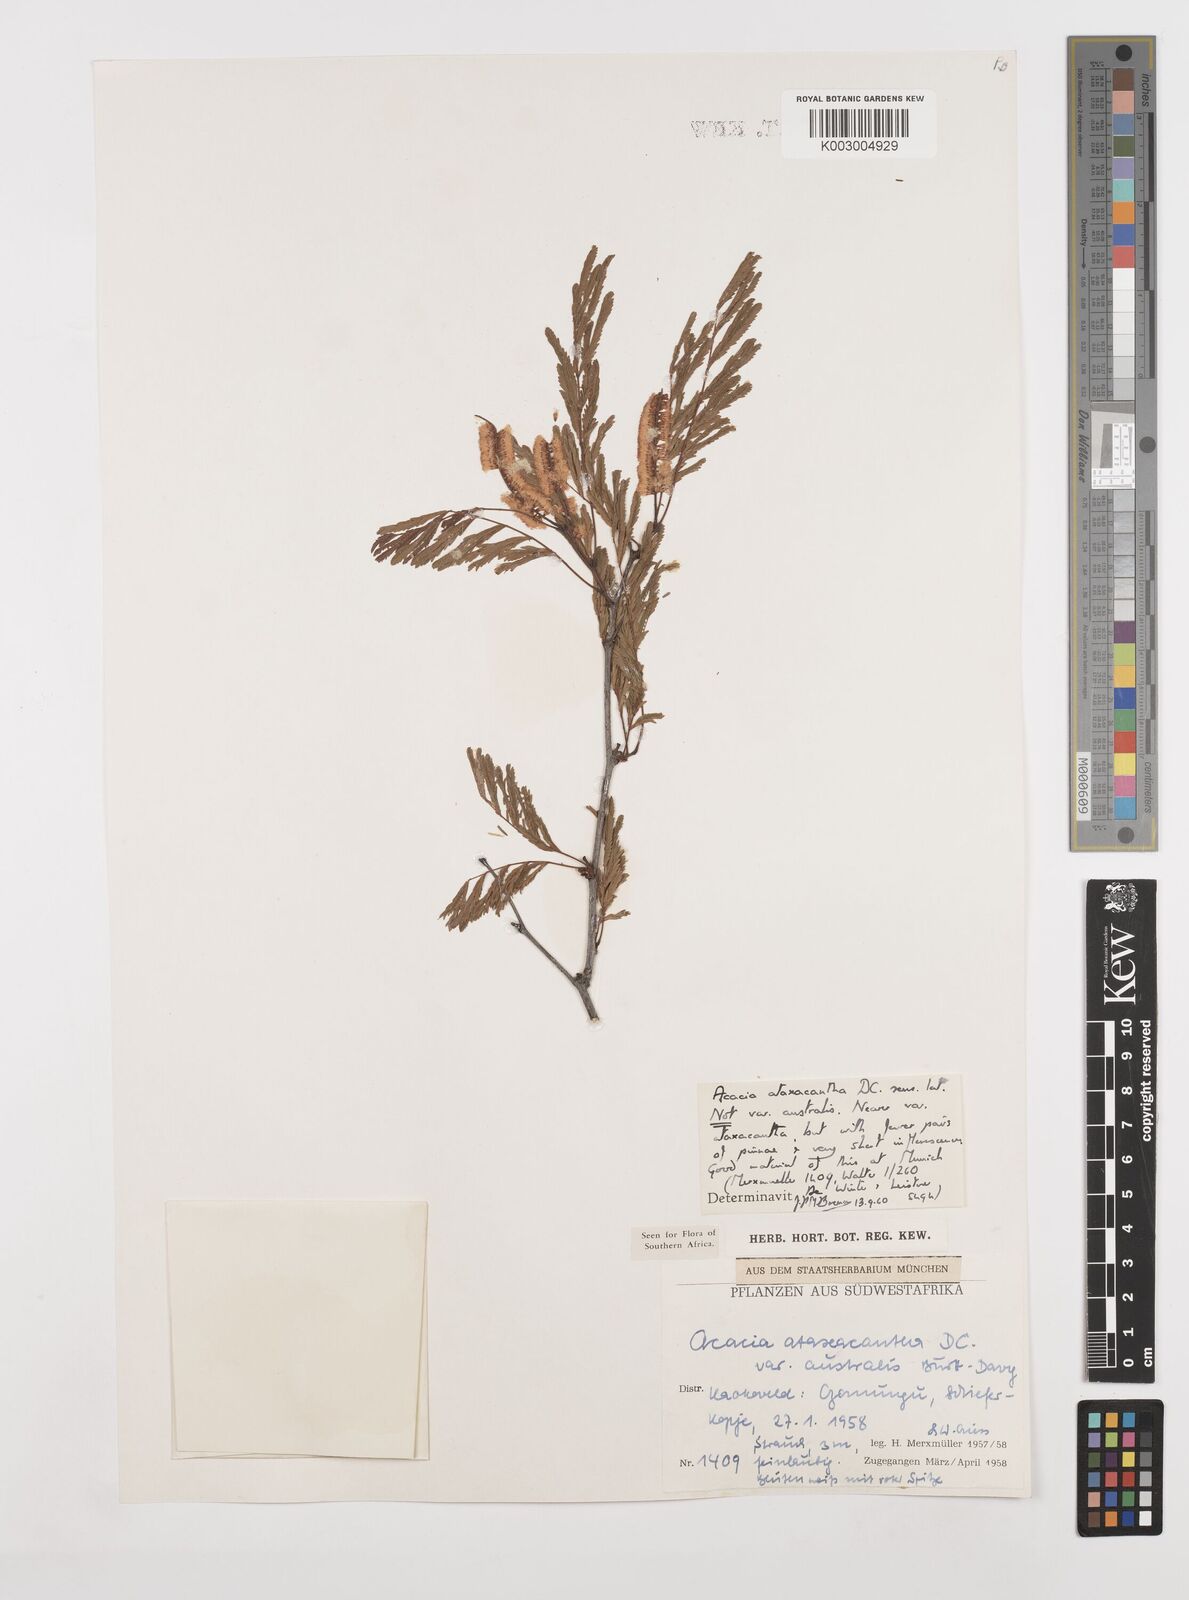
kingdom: Plantae
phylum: Tracheophyta
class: Magnoliopsida
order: Fabales
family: Fabaceae
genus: Senegalia
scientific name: Senegalia ataxacantha
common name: Flame acacia
